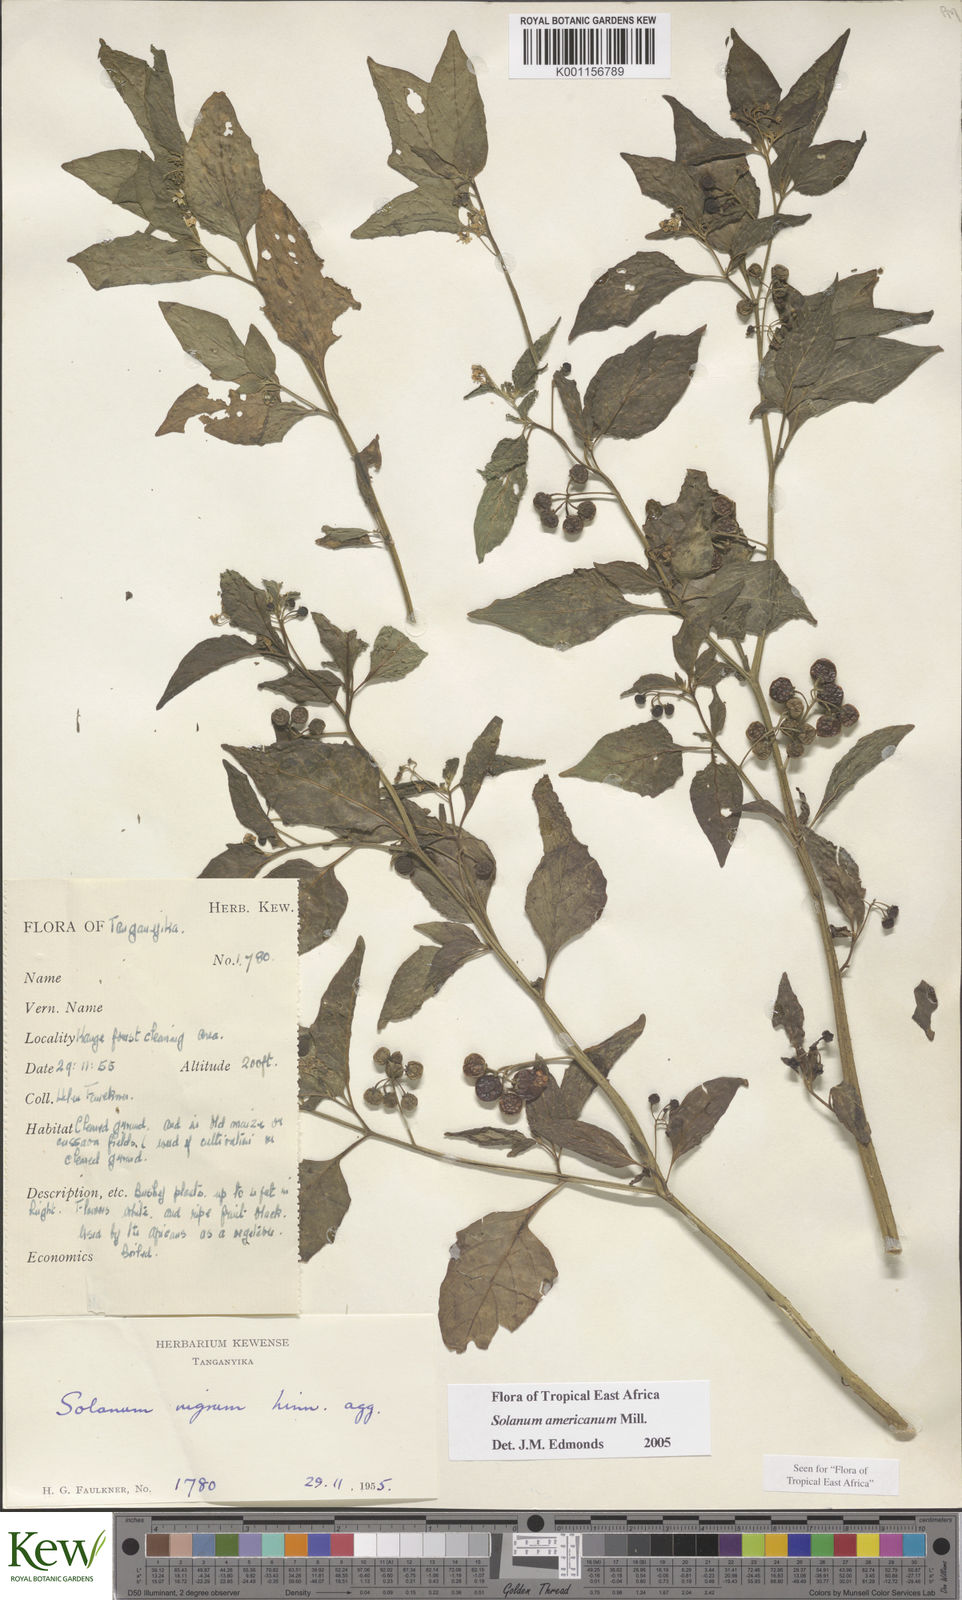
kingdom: Plantae
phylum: Tracheophyta
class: Magnoliopsida
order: Solanales
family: Solanaceae
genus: Solanum
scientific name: Solanum americanum
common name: American black nightshade
